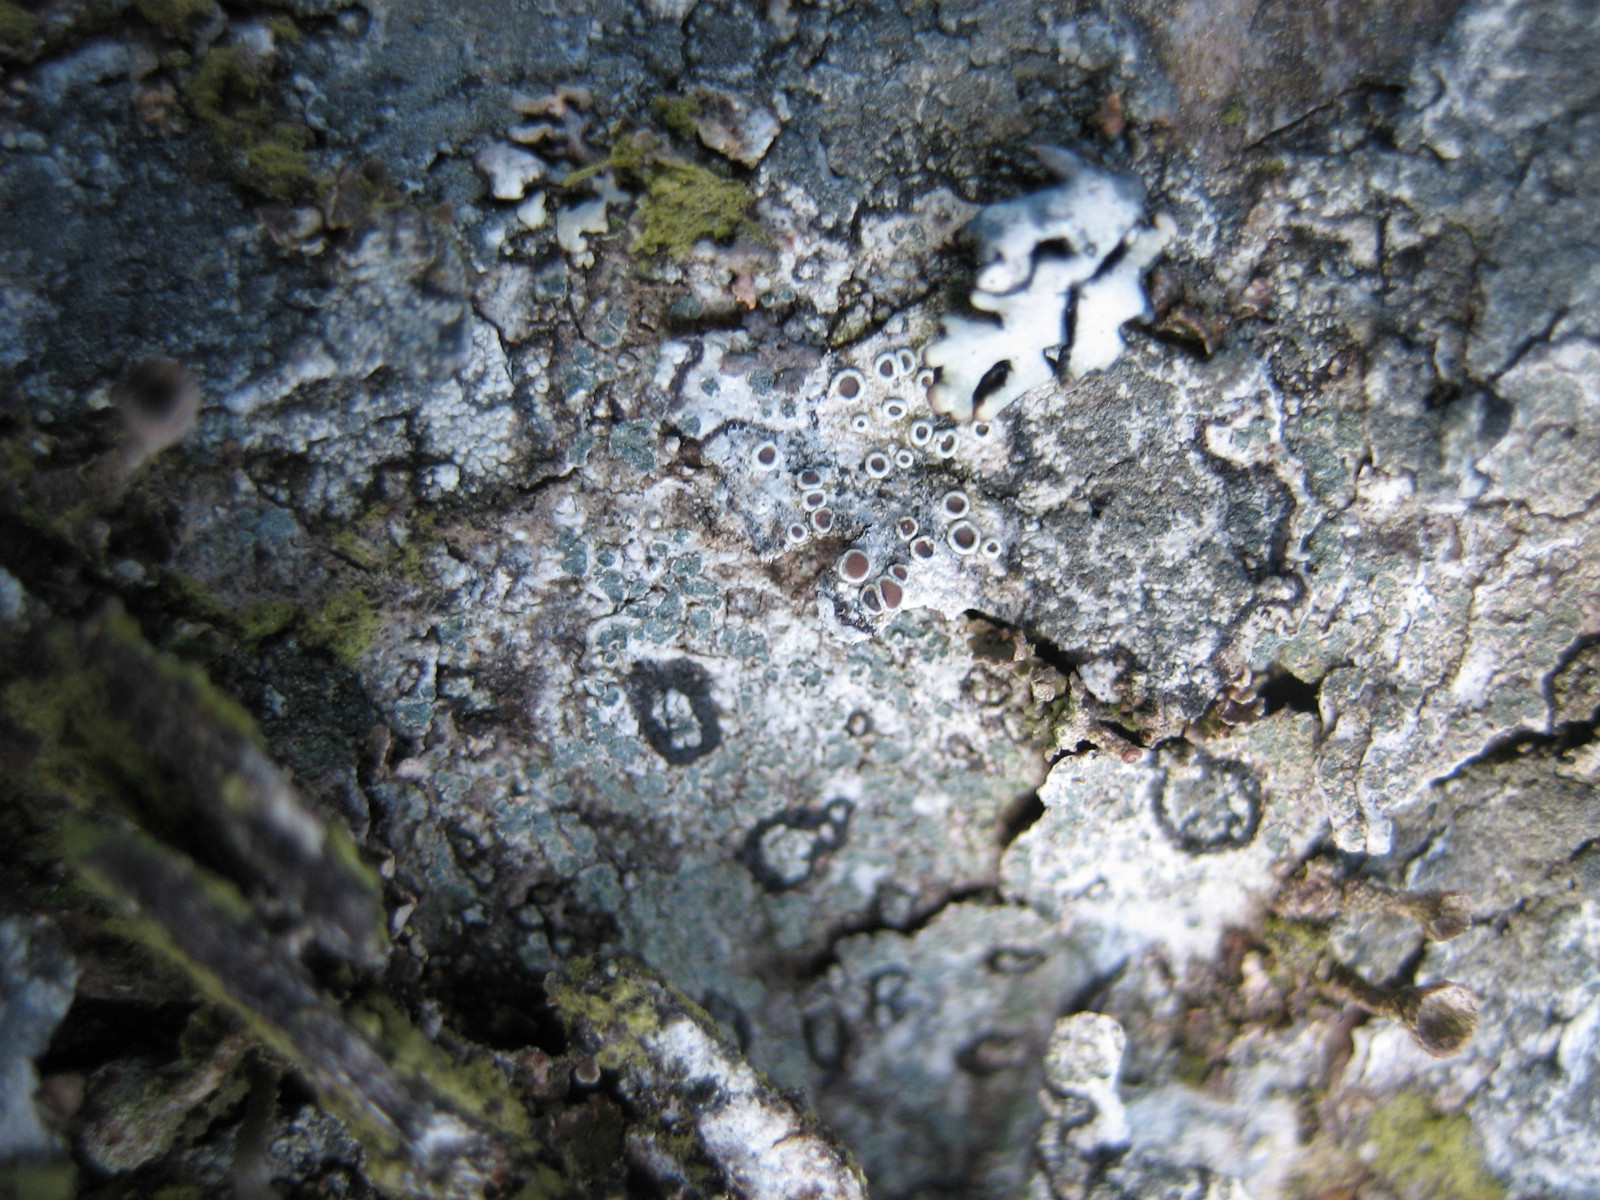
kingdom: Fungi
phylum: Ascomycota
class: Lecanoromycetes
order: Lecanorales
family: Lecanoraceae
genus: Lecanora
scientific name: Lecanora pulicaris
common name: almindelig kantskivelav
